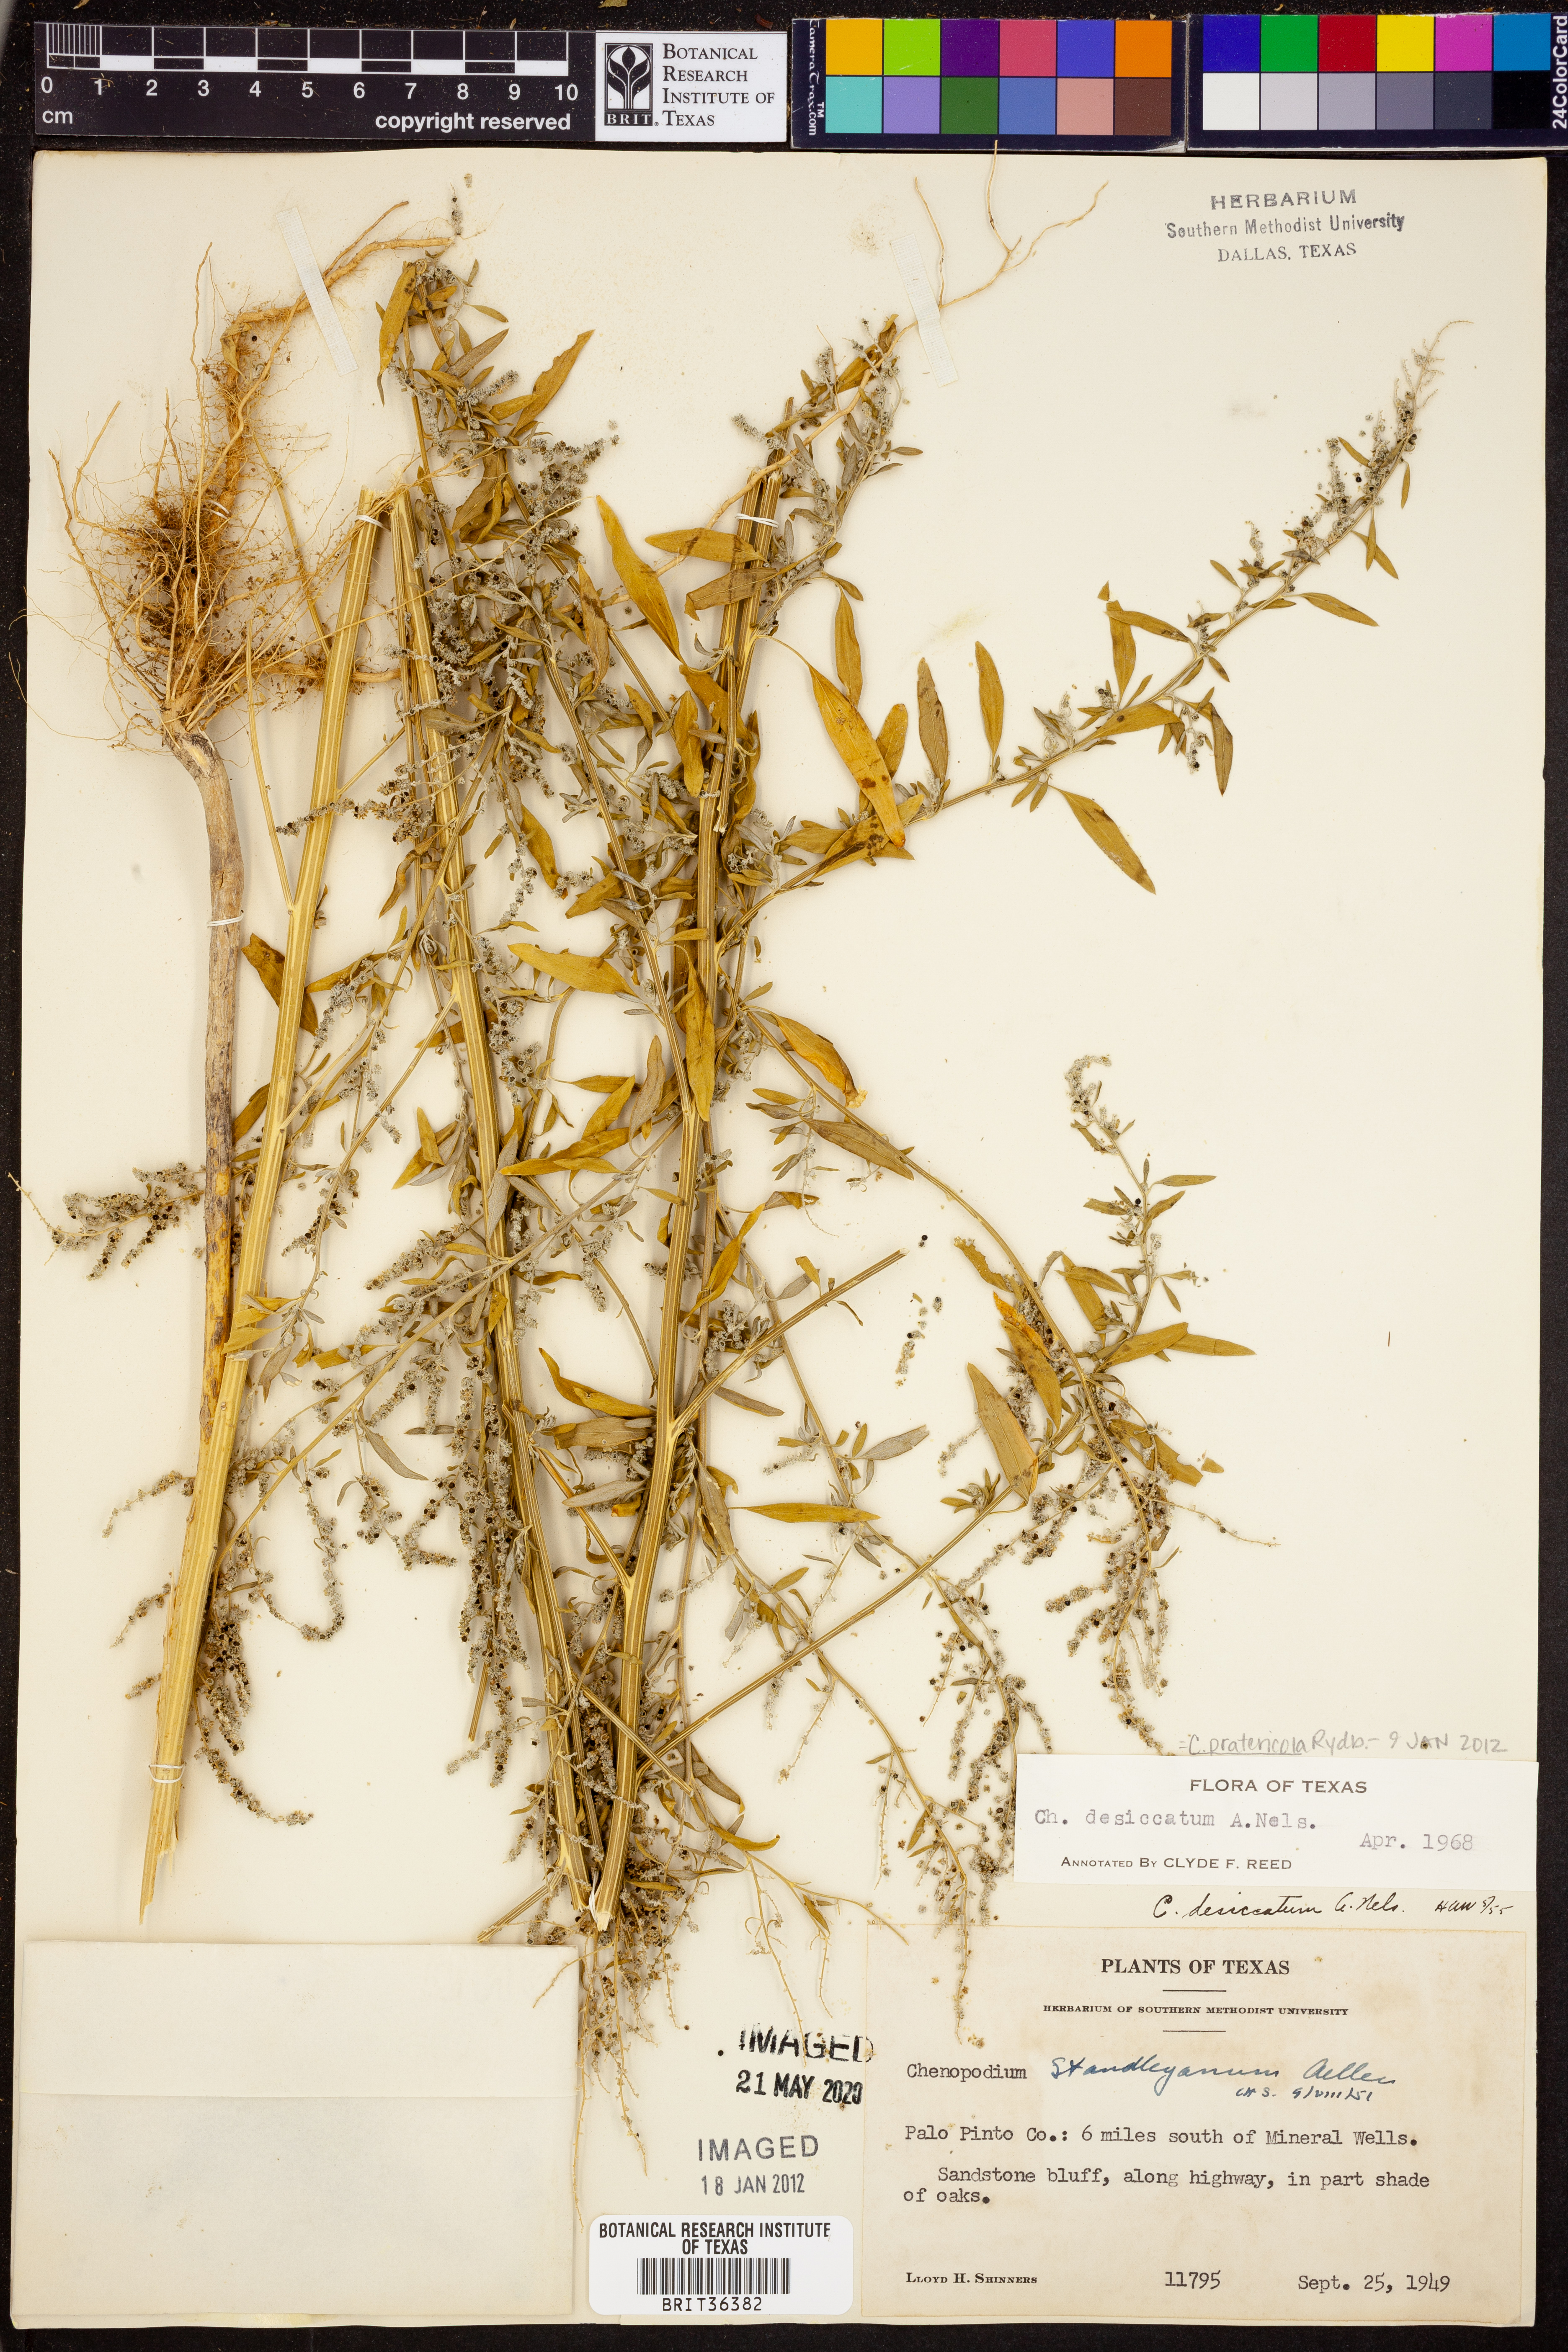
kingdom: Plantae
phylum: Tracheophyta
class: Magnoliopsida
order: Caryophyllales
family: Amaranthaceae
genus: Chenopodium
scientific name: Chenopodium pratericola
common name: Desert goosefoot
